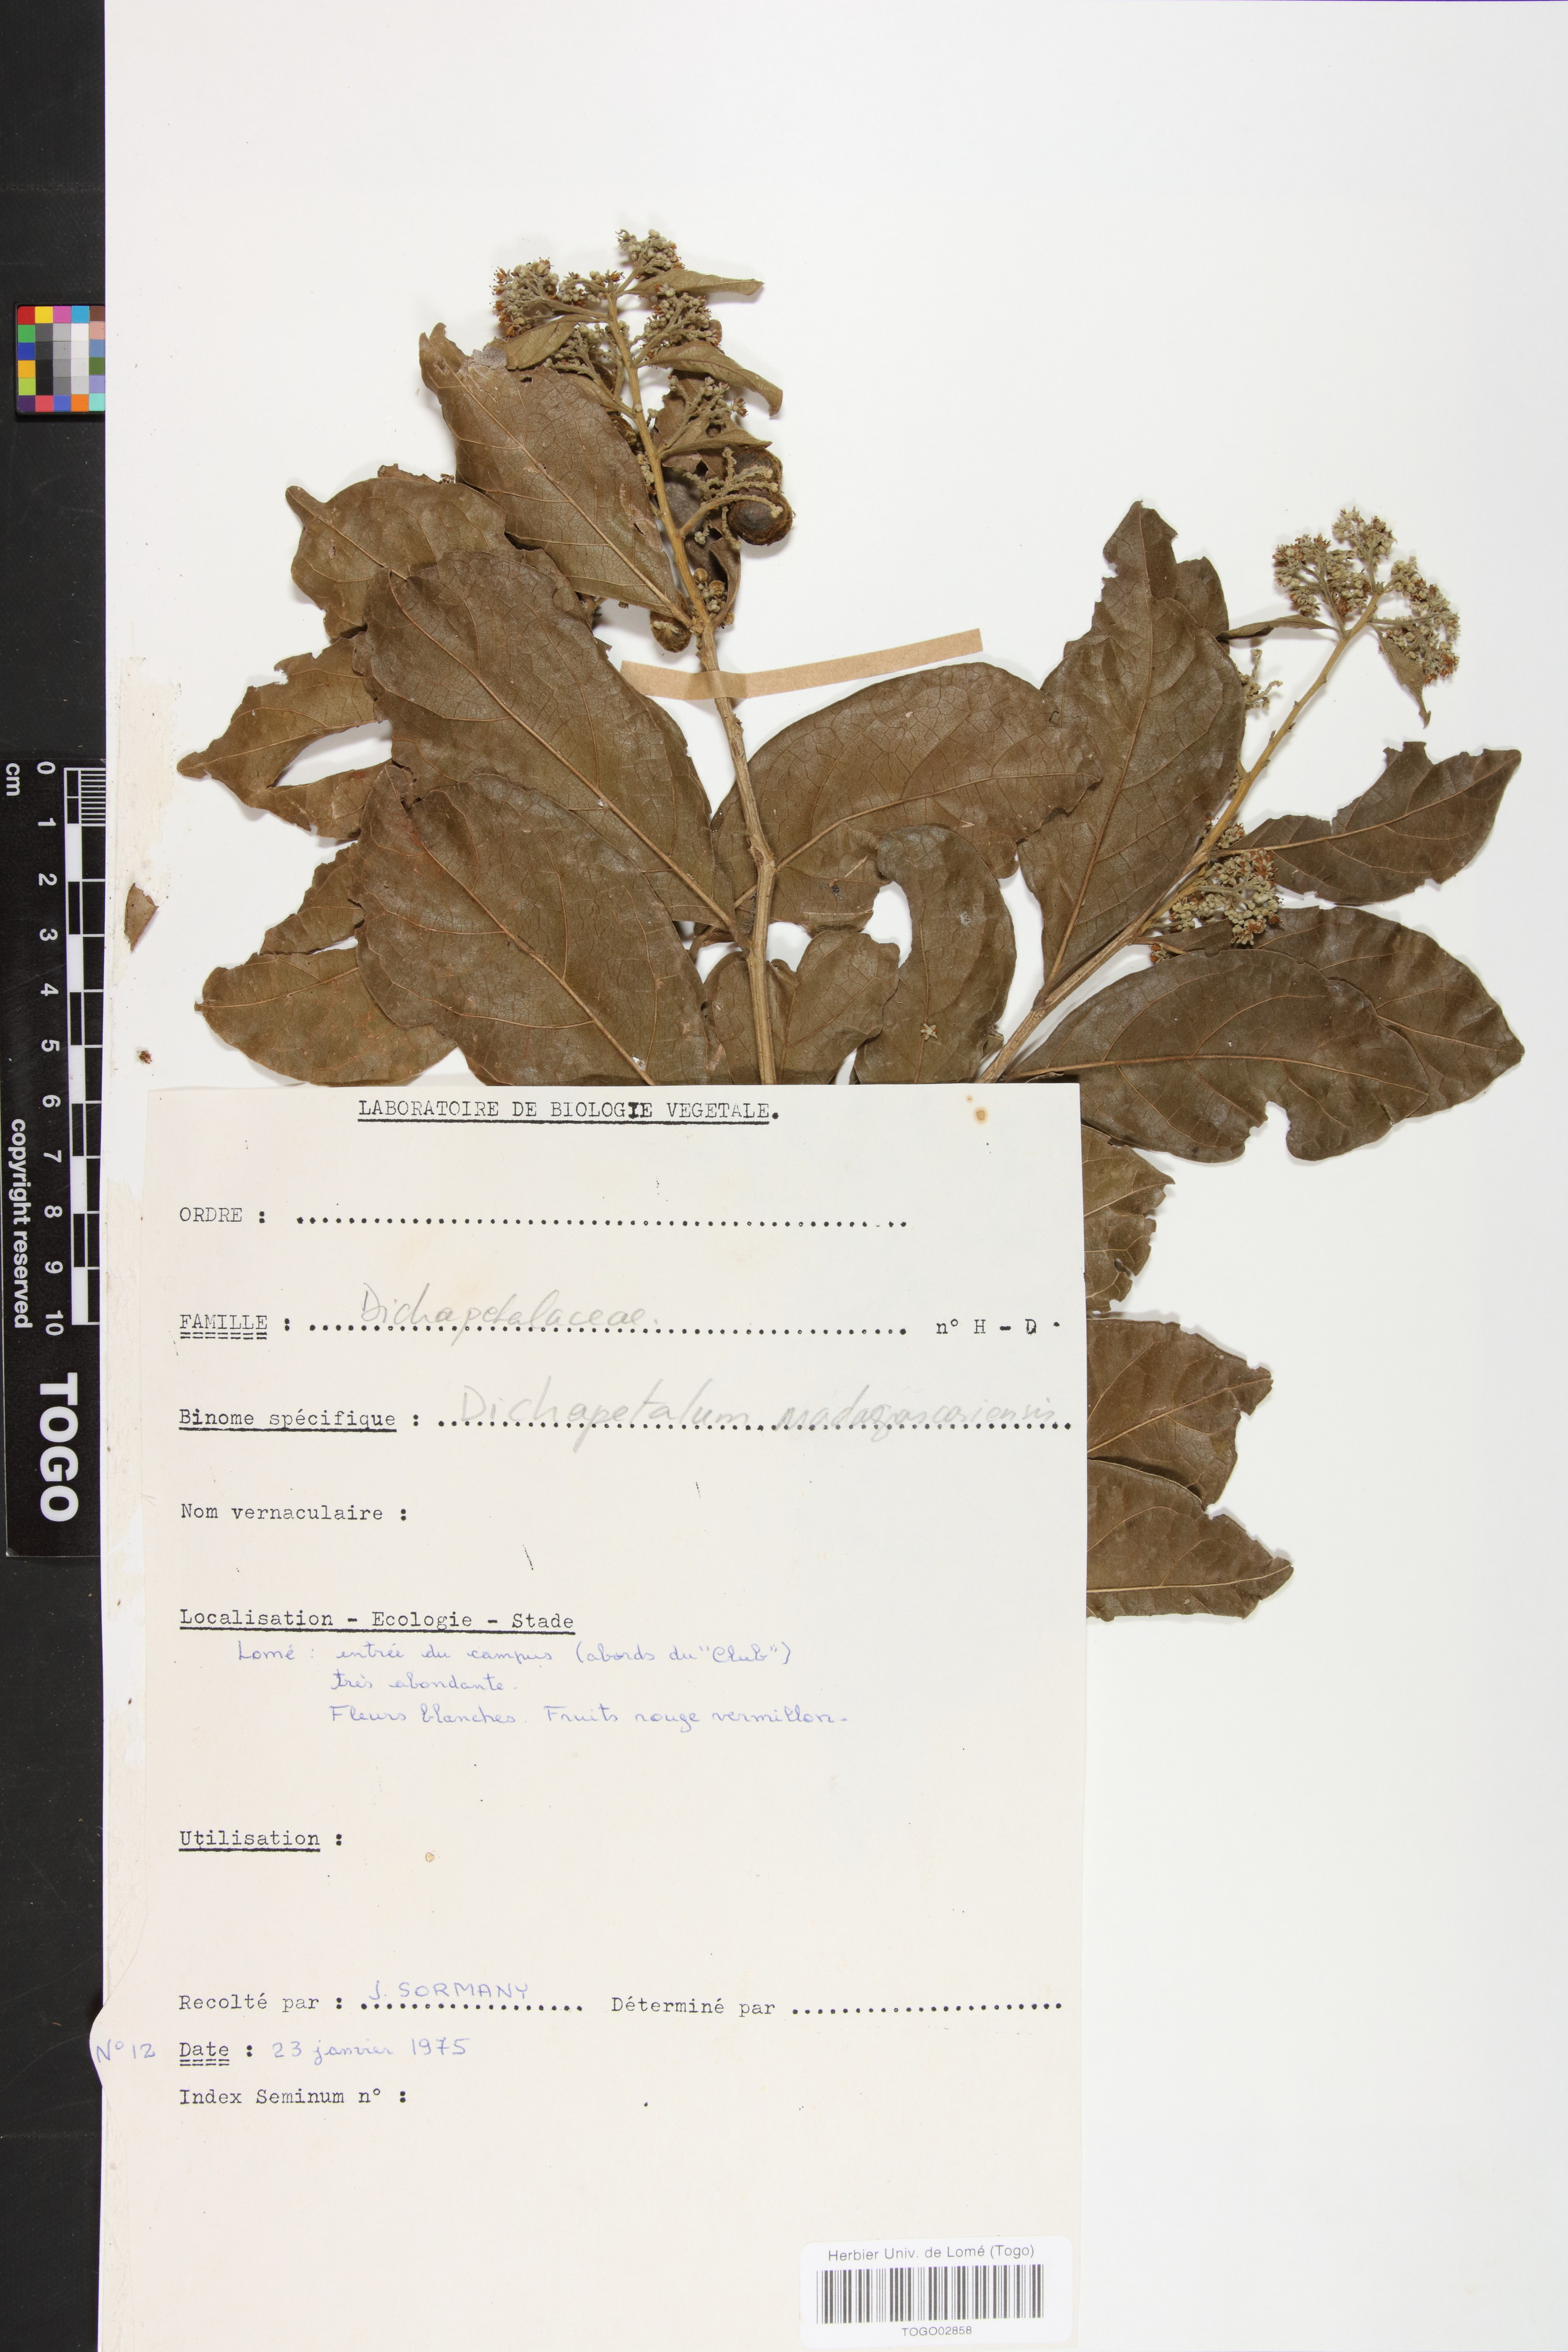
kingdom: Plantae
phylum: Tracheophyta
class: Magnoliopsida
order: Malpighiales
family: Dichapetalaceae
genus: Dichapetalum
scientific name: Dichapetalum madagascariense
